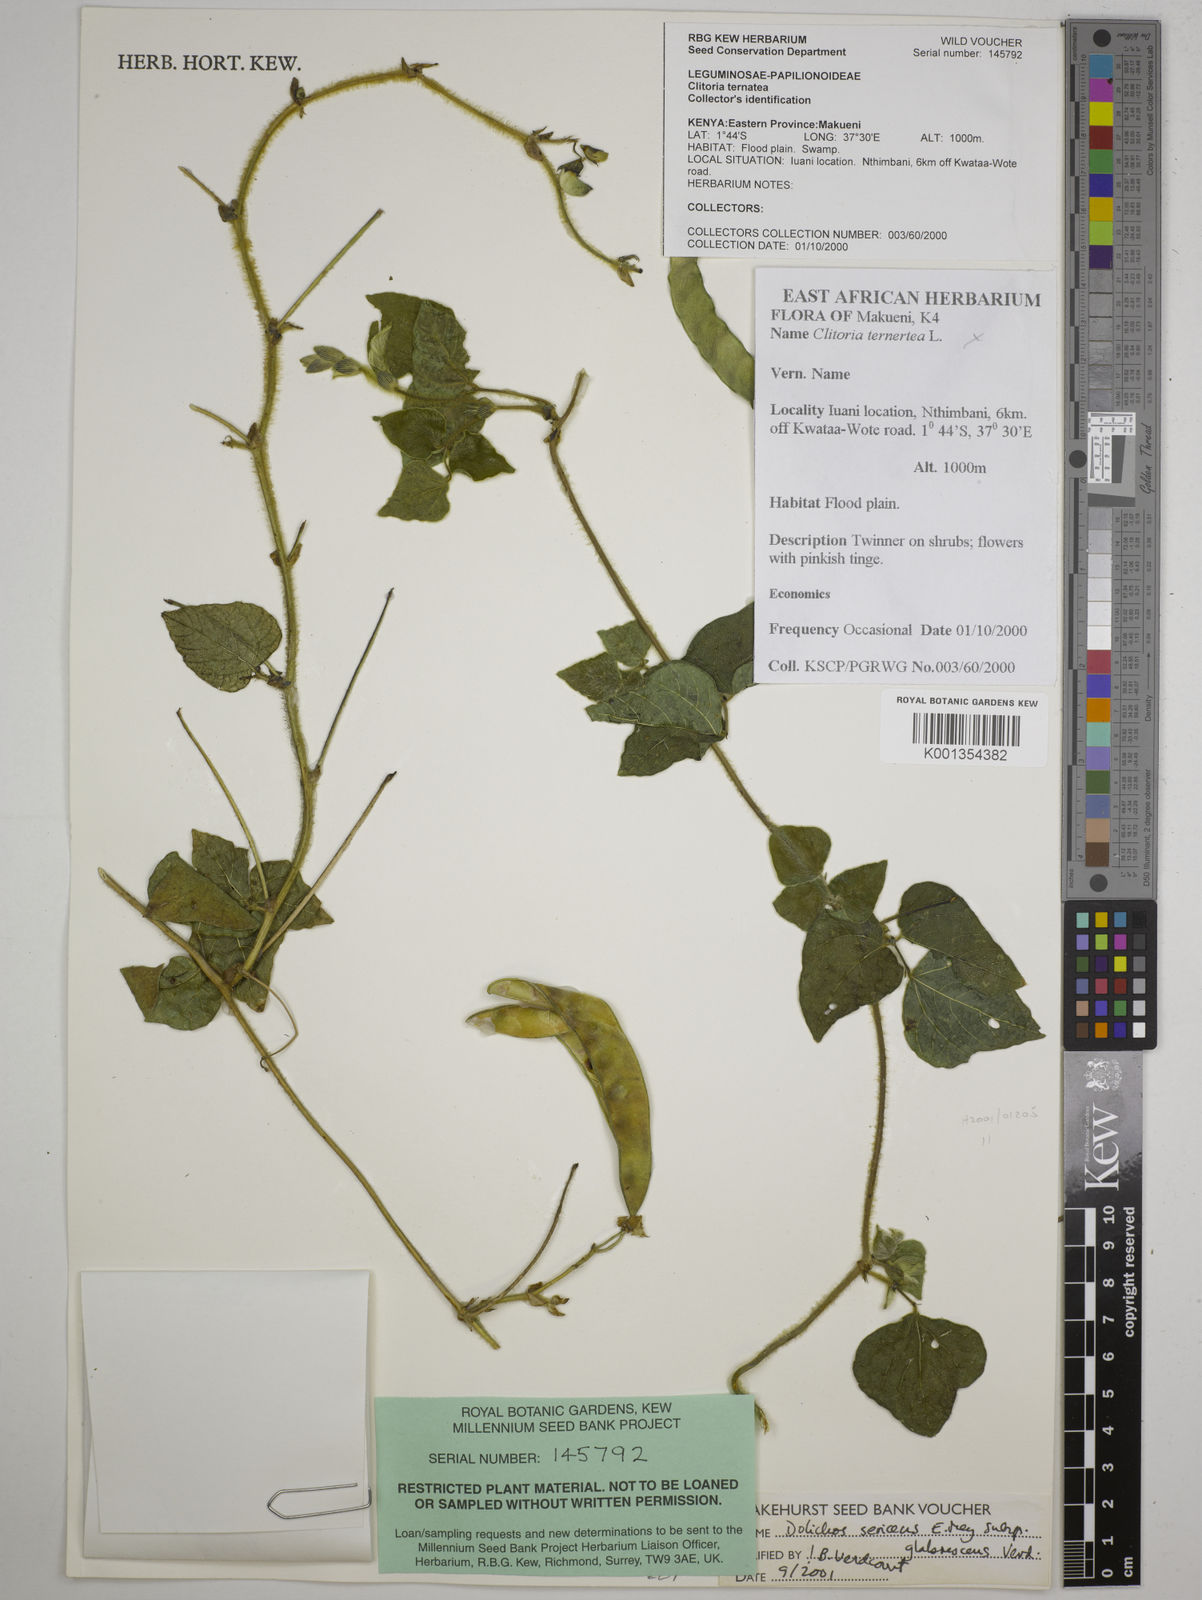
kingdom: Plantae
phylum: Tracheophyta
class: Magnoliopsida
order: Fabales
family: Fabaceae
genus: Dolichos
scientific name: Dolichos sericeus
